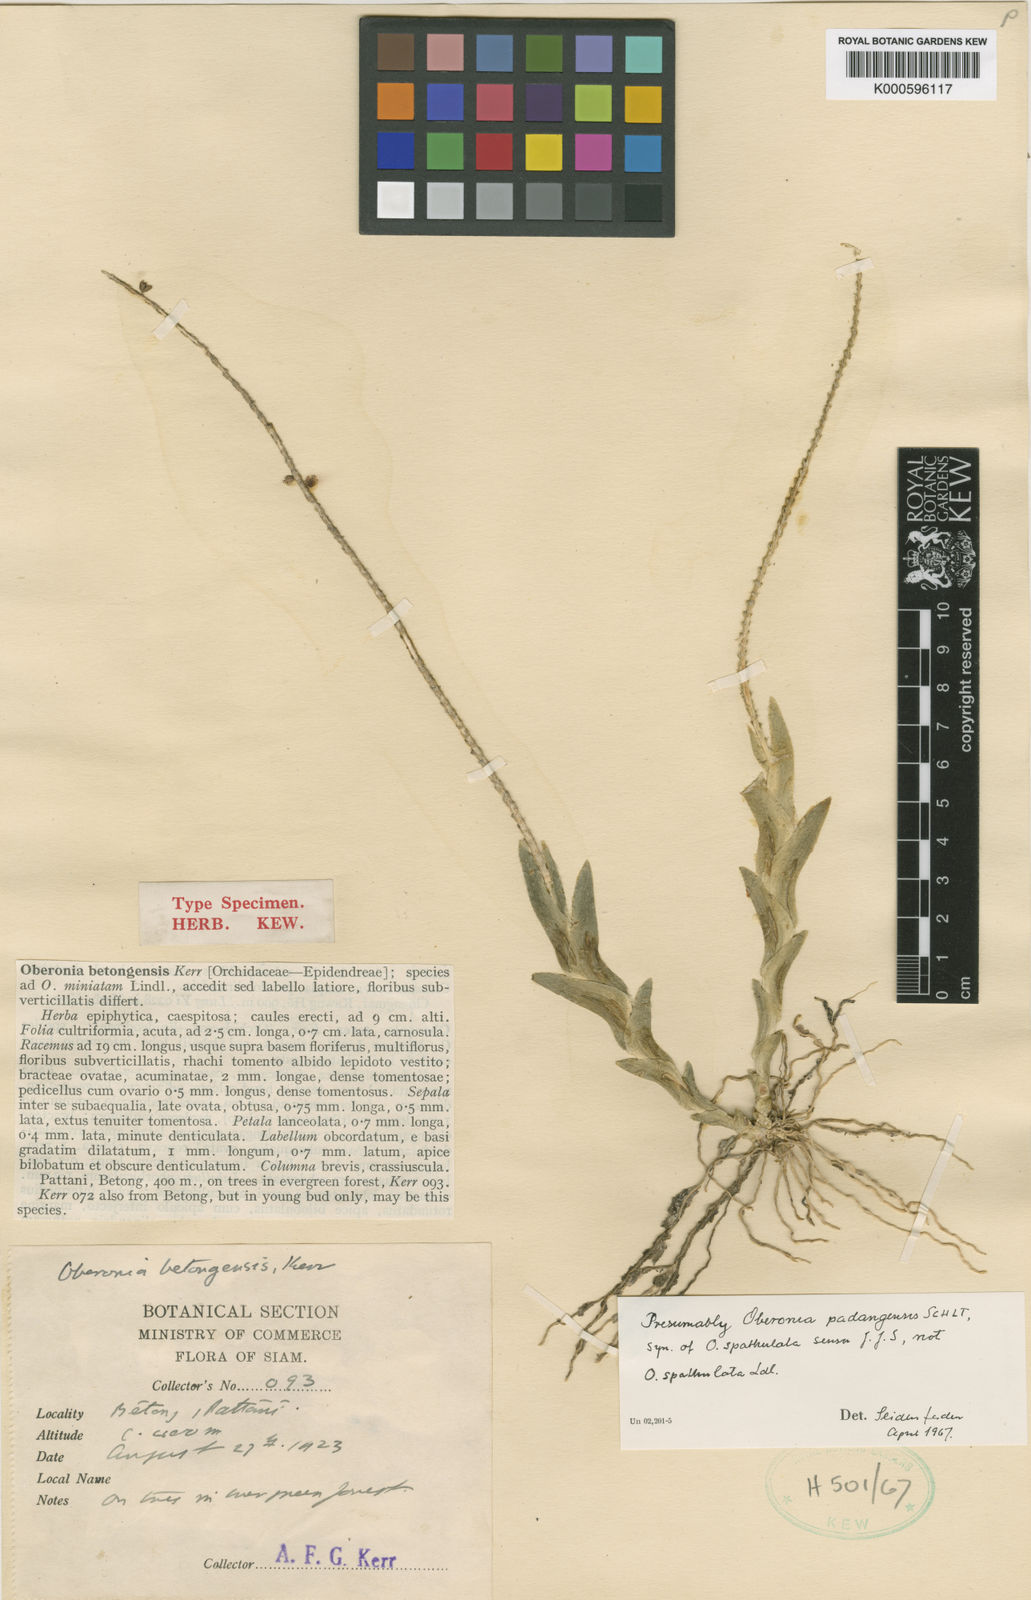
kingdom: Plantae
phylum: Tracheophyta
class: Liliopsida
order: Asparagales
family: Orchidaceae
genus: Oberonia
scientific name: Oberonia padangensis
